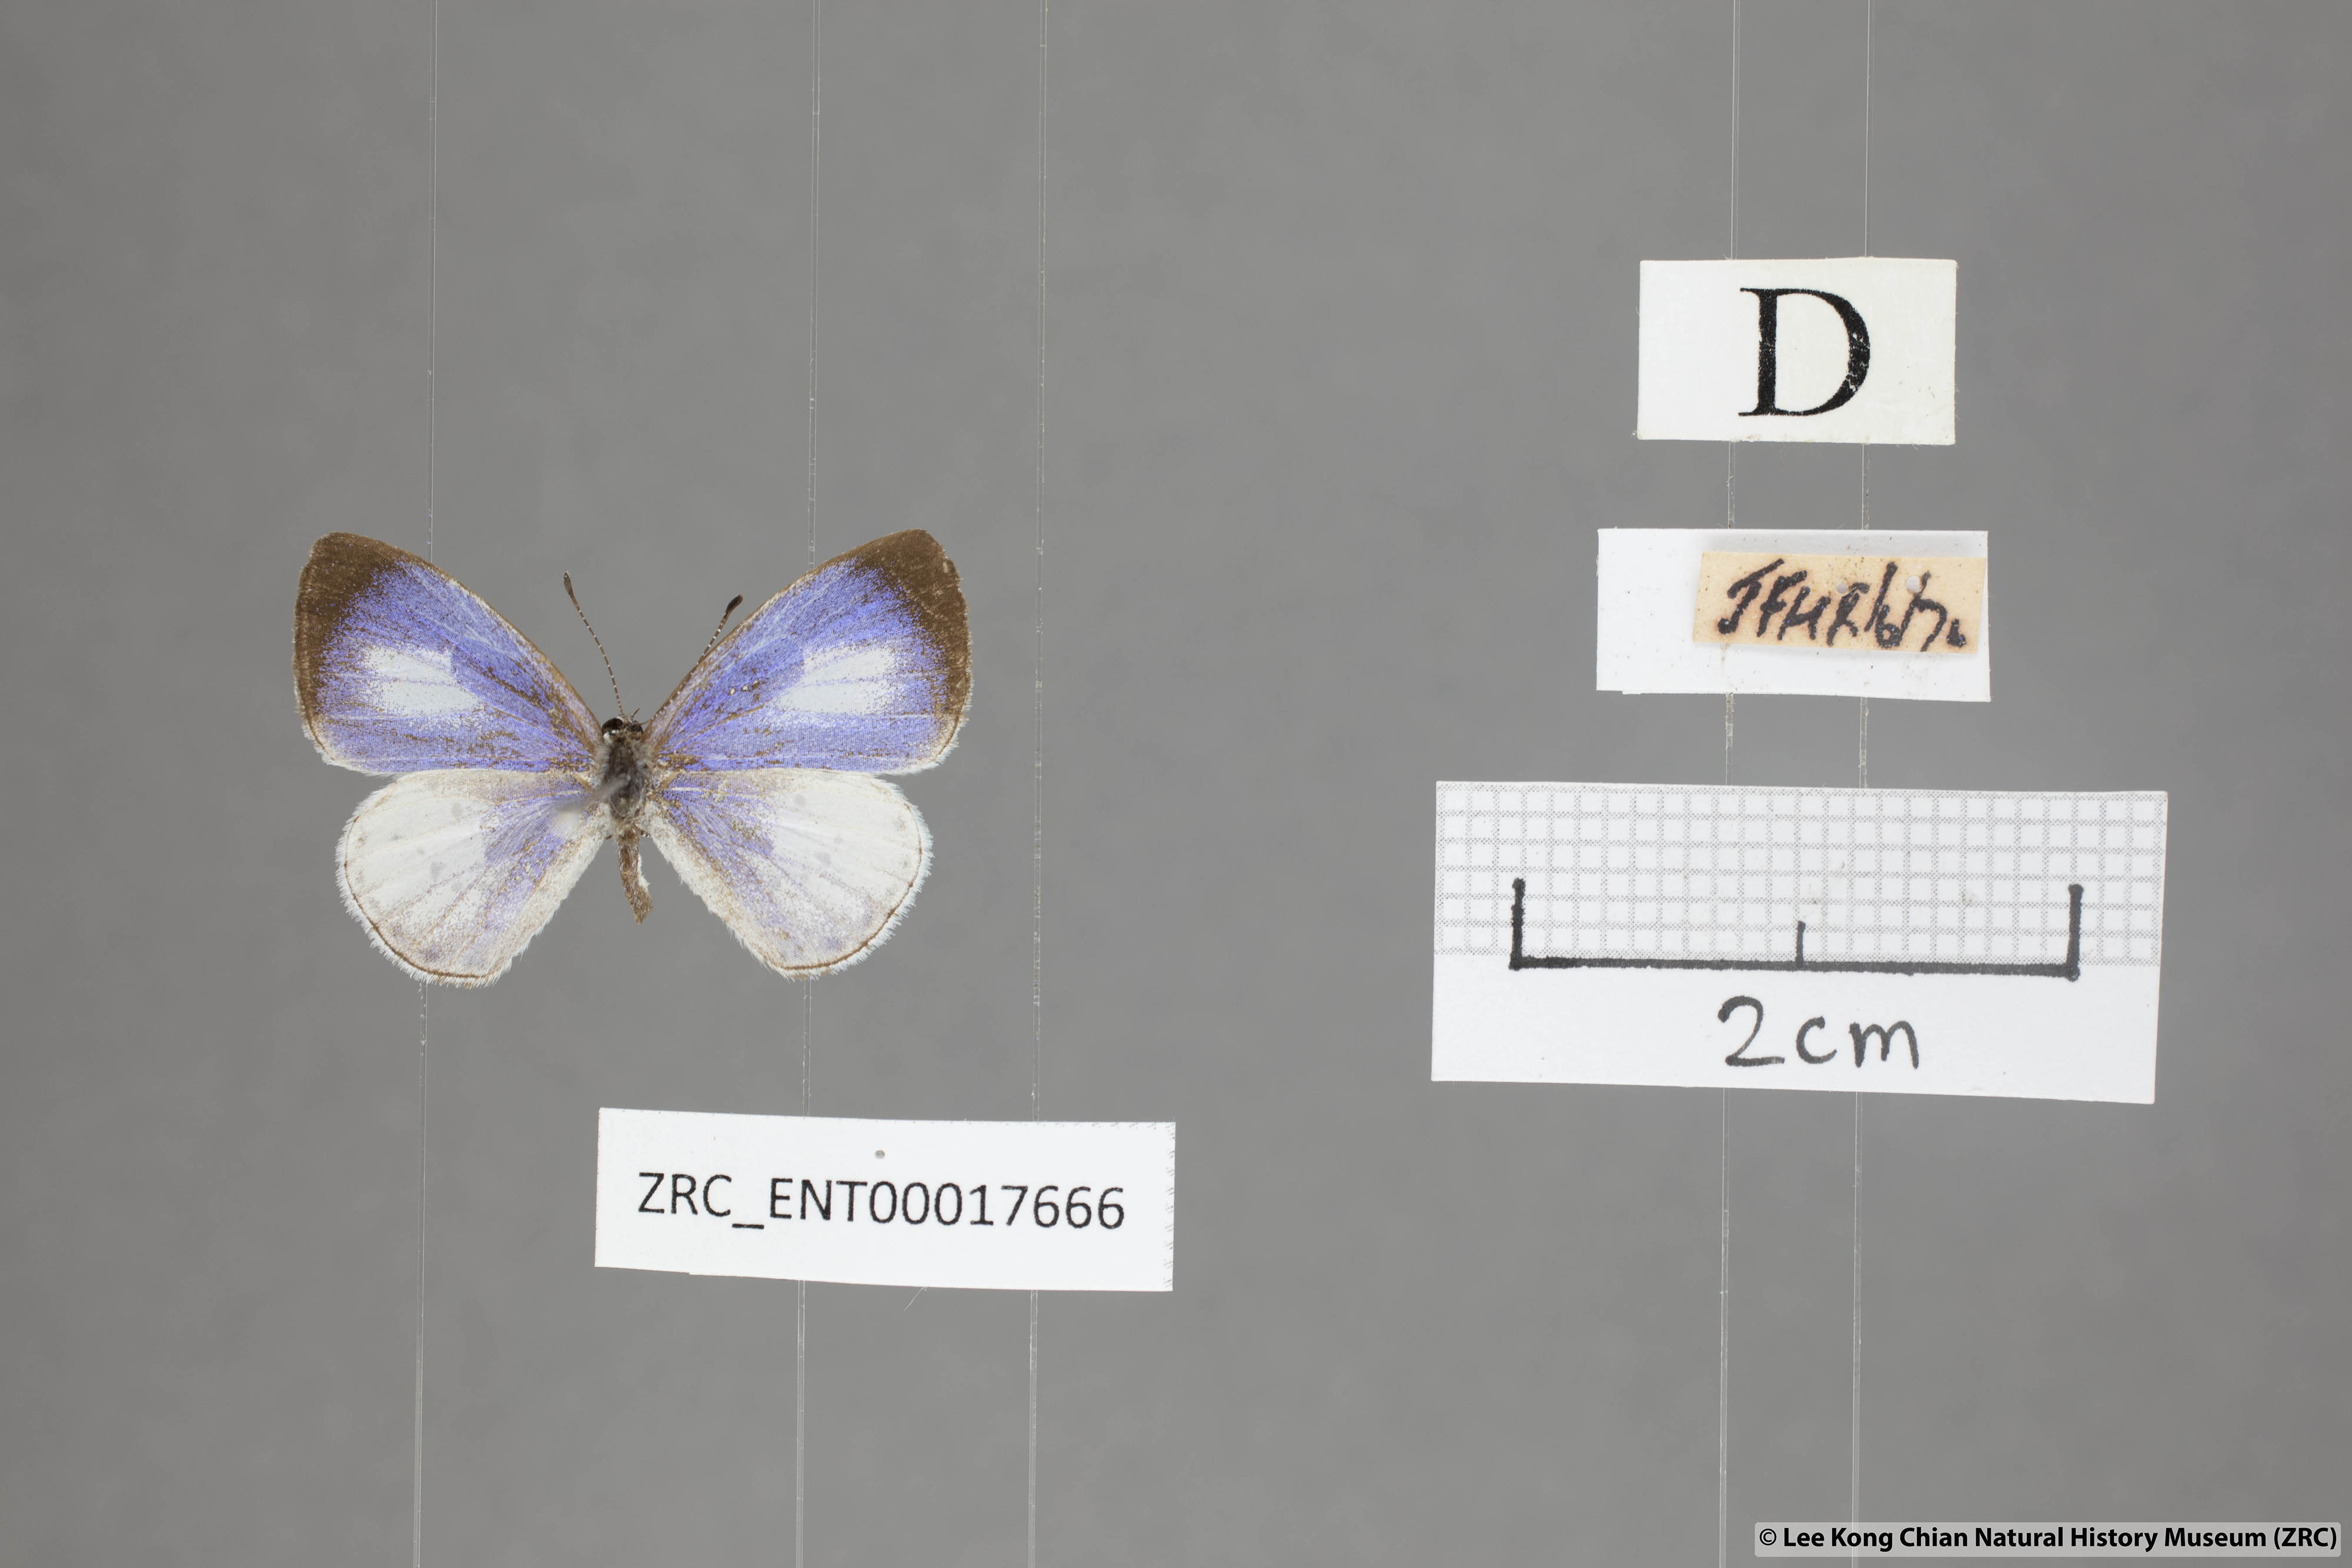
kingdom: Animalia
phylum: Arthropoda
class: Insecta
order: Lepidoptera
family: Lycaenidae
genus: Udara
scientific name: Udara albocaerulea
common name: Albocerulean
